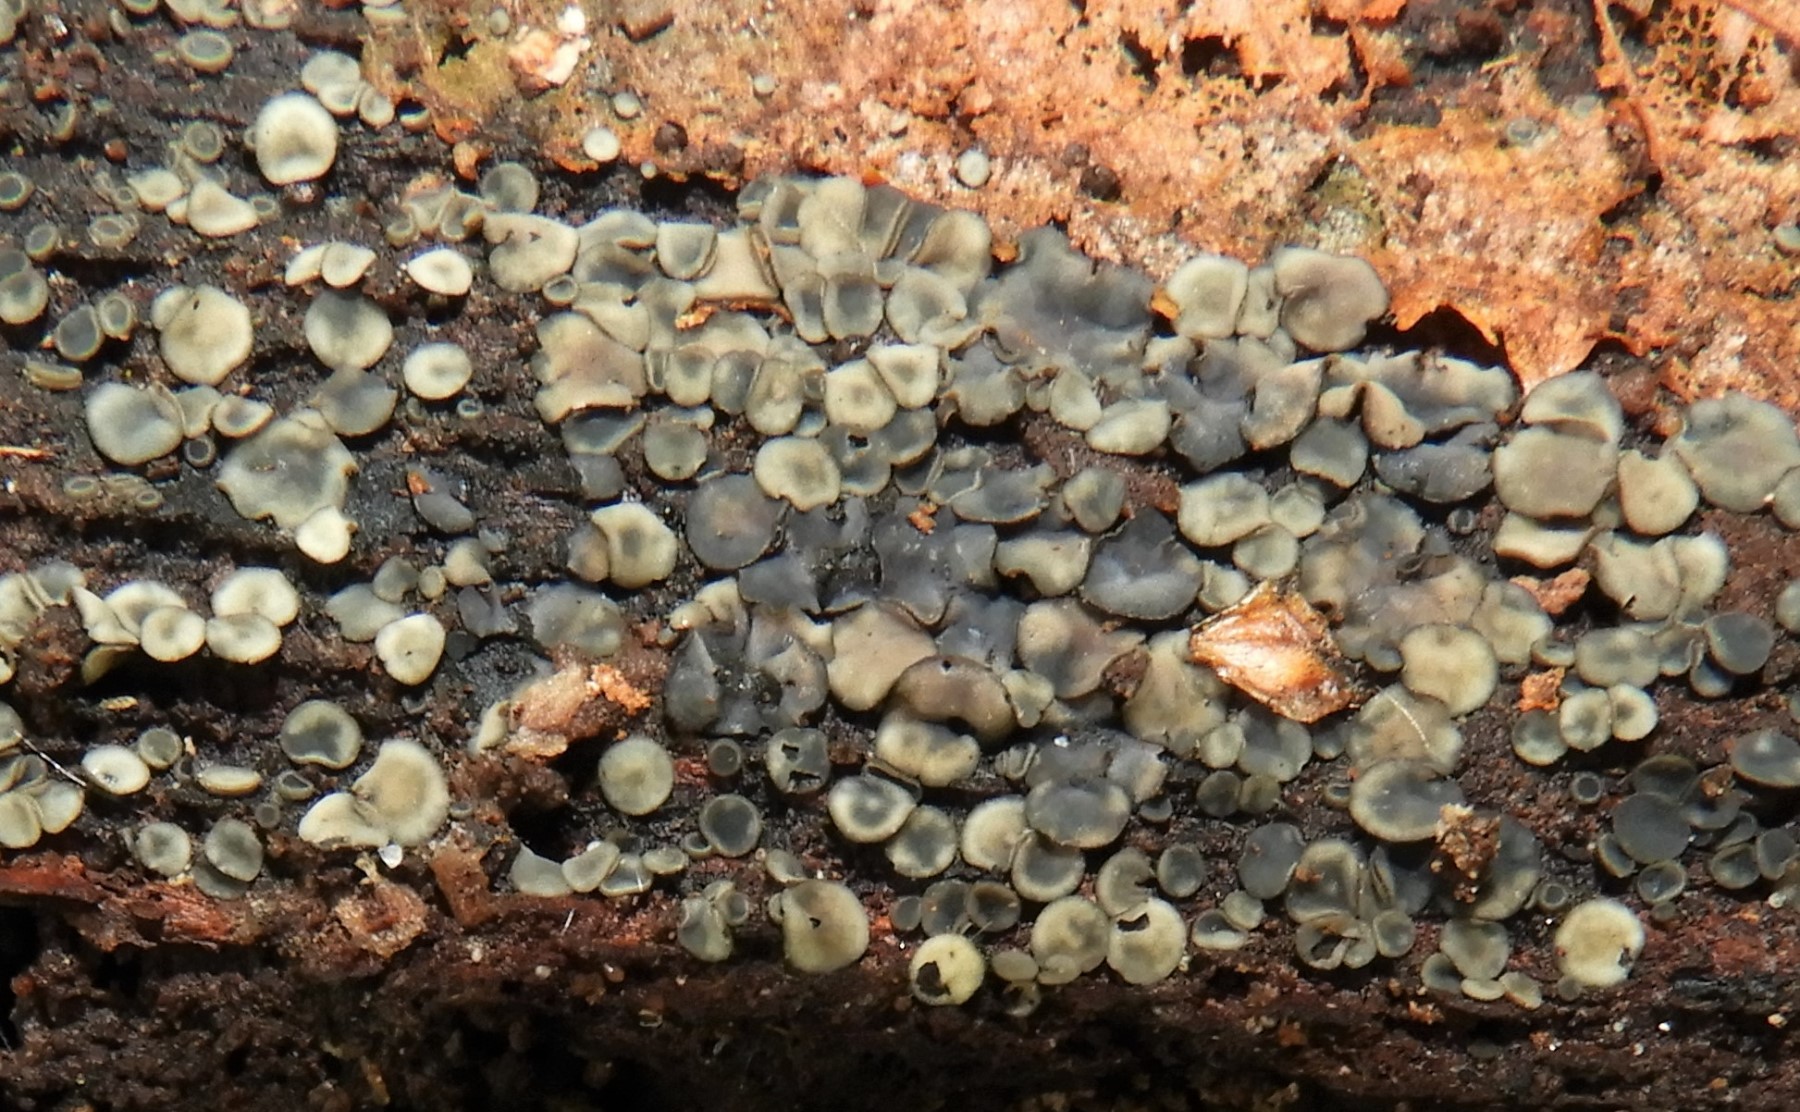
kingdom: Fungi
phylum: Ascomycota
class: Leotiomycetes
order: Helotiales
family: Mollisiaceae
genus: Mollisia
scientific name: Mollisia
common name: gråskive
